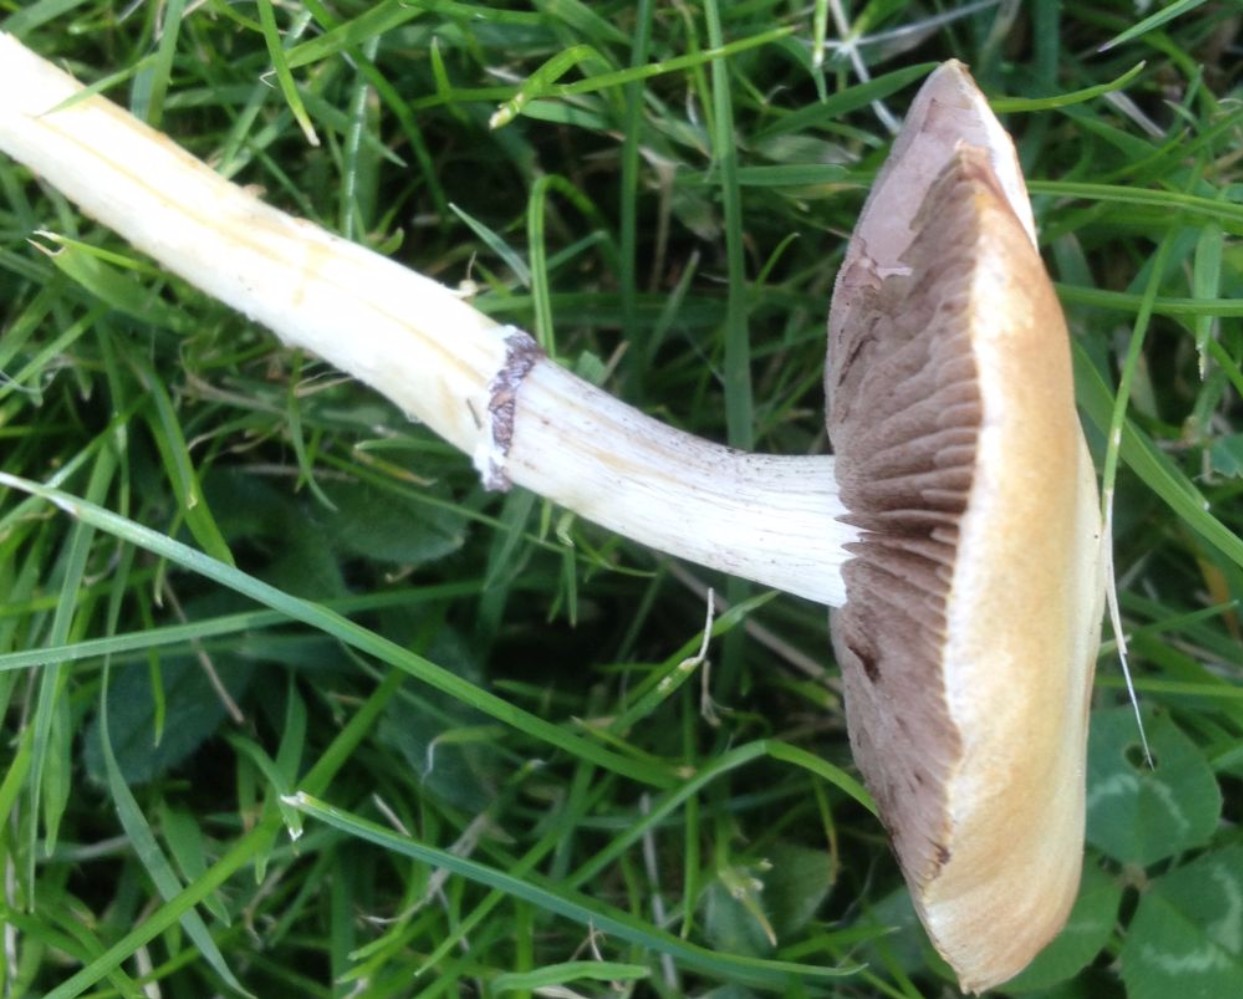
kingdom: Fungi
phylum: Basidiomycota
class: Agaricomycetes
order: Agaricales
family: Hymenogastraceae
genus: Psilocybe
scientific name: Psilocybe coronilla
